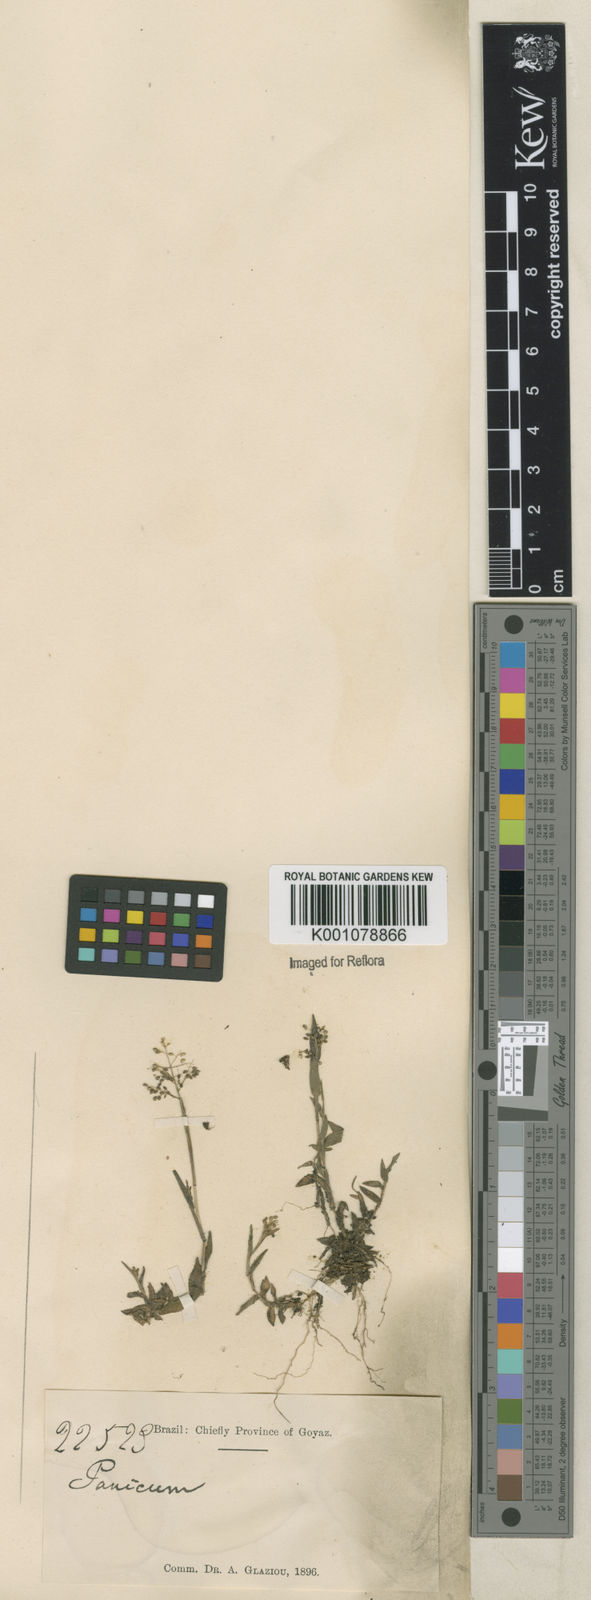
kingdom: Plantae
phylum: Tracheophyta
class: Liliopsida
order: Poales
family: Poaceae
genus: Trichanthecium
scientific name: Trichanthecium parvifolium
